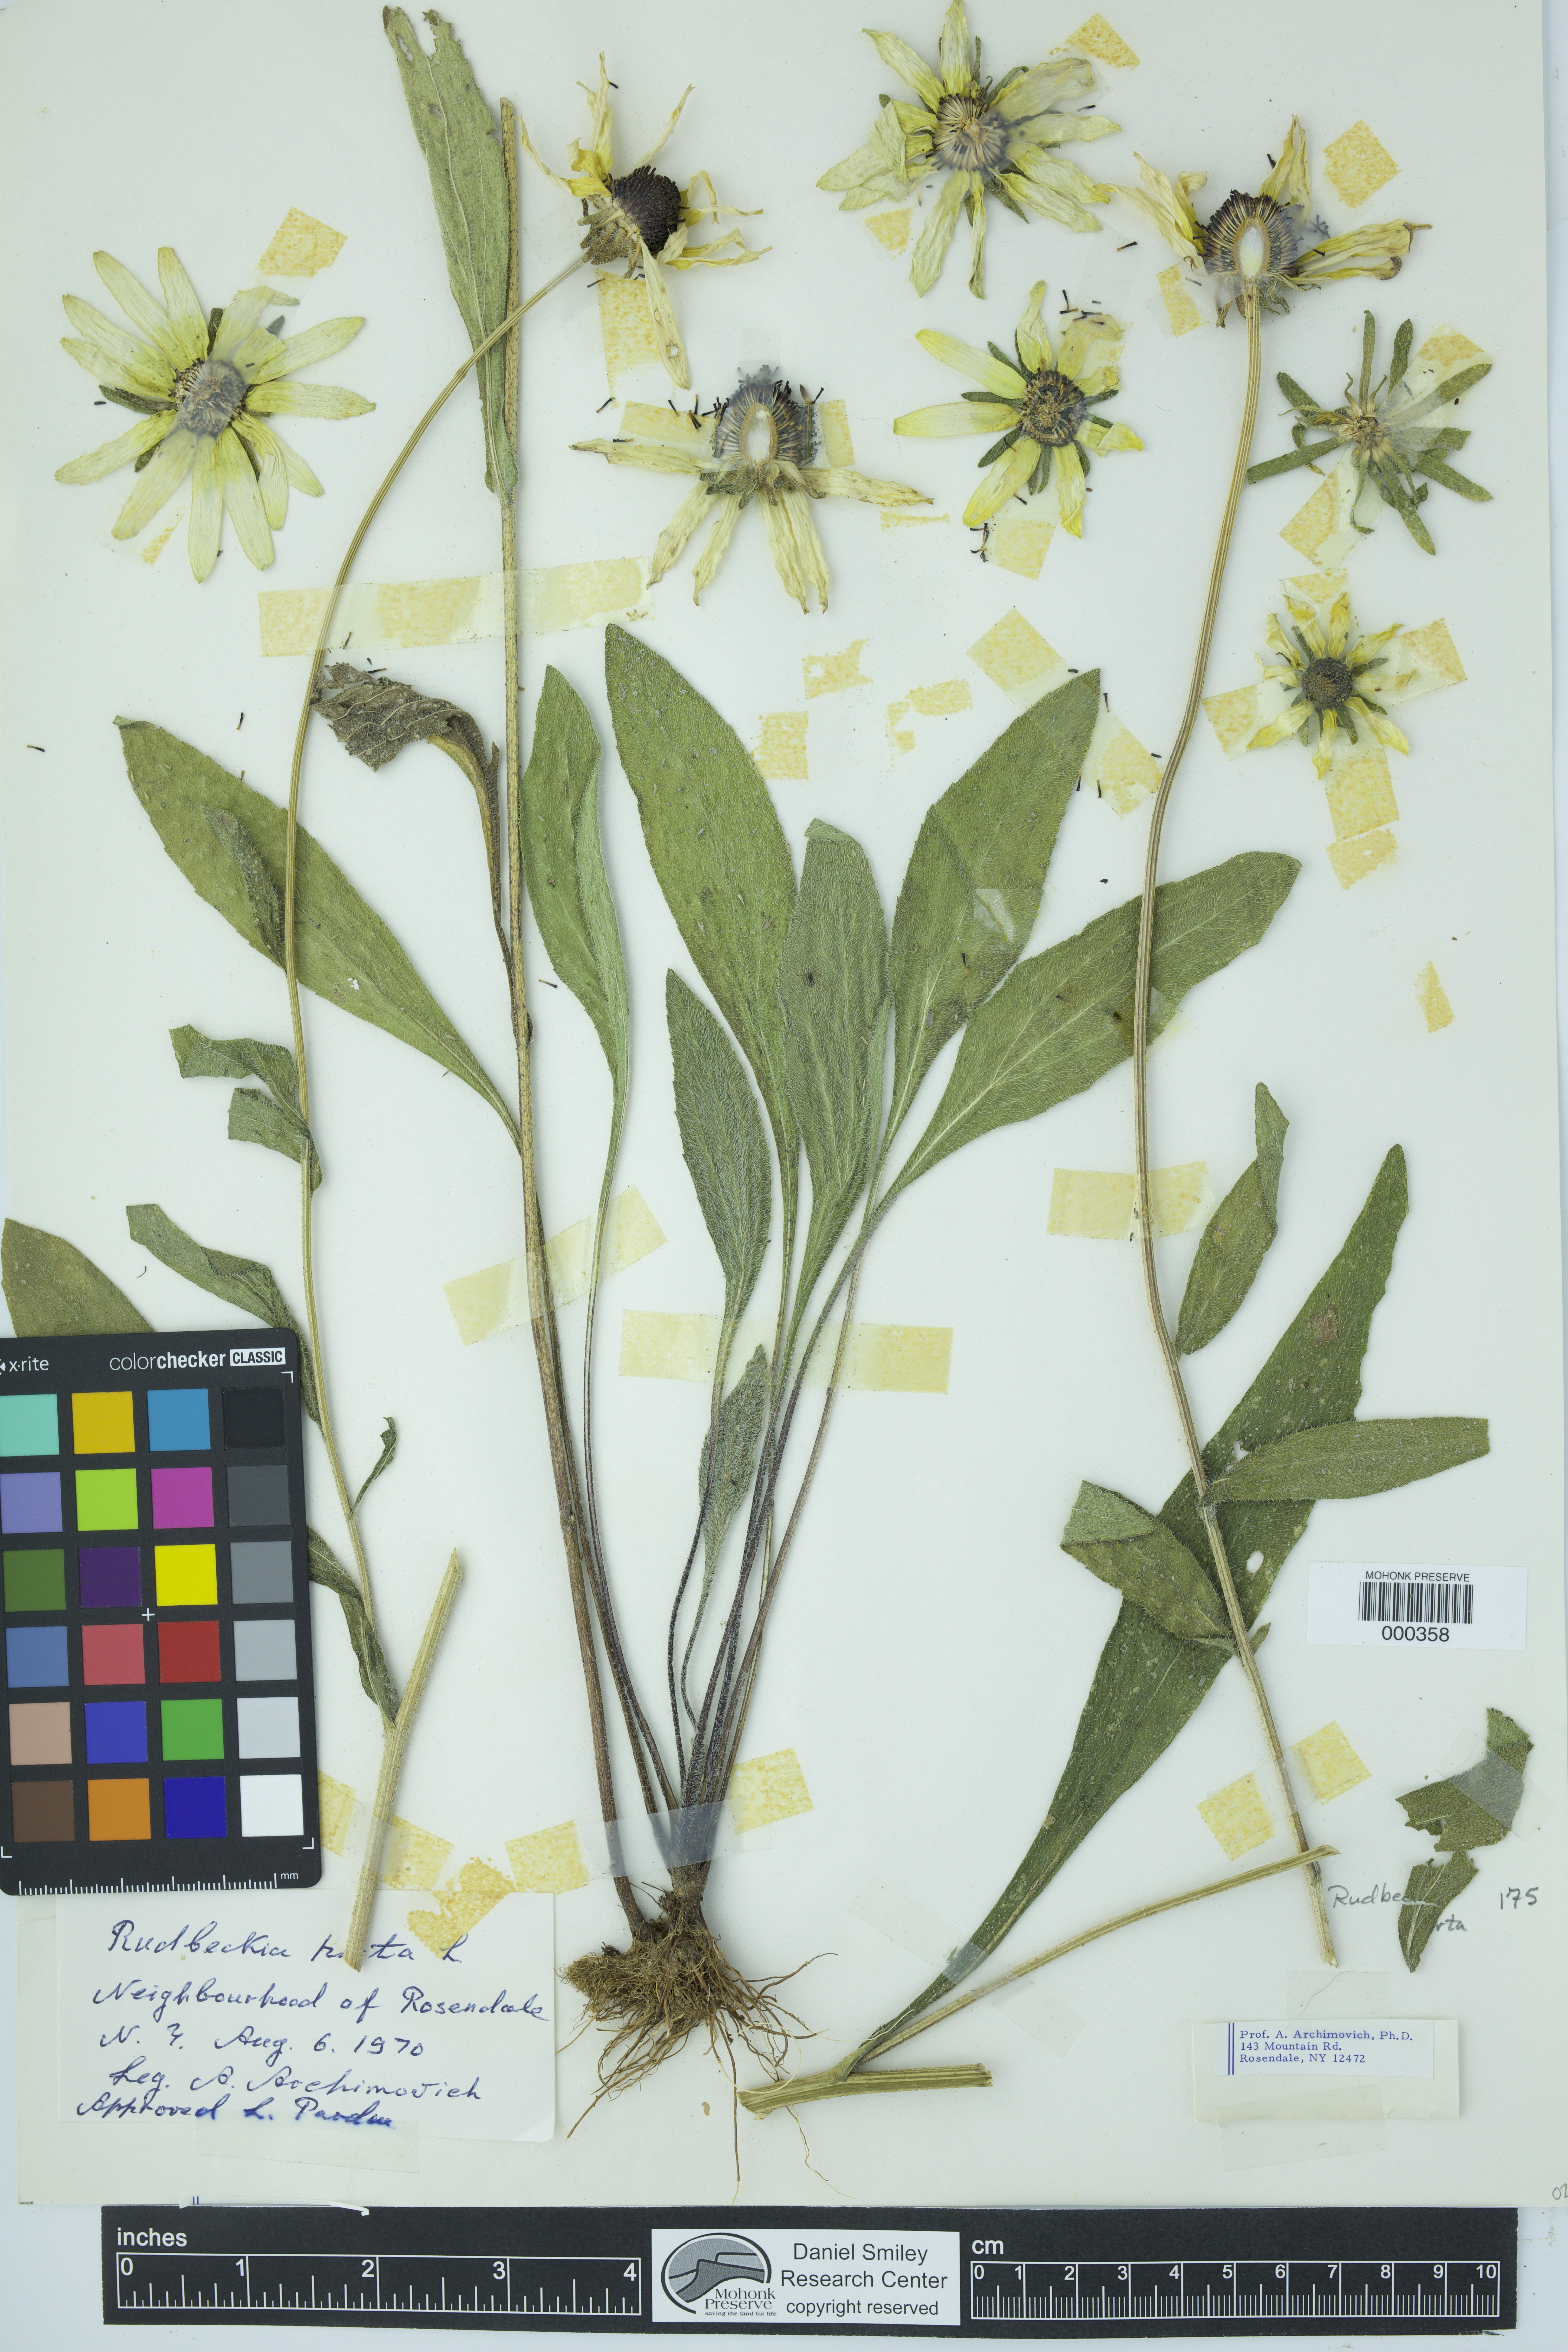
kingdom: Plantae
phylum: Tracheophyta
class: Magnoliopsida
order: Asterales
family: Asteraceae
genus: Rudbeckia
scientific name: Rudbeckia hirta
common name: Black-eyed-susan
